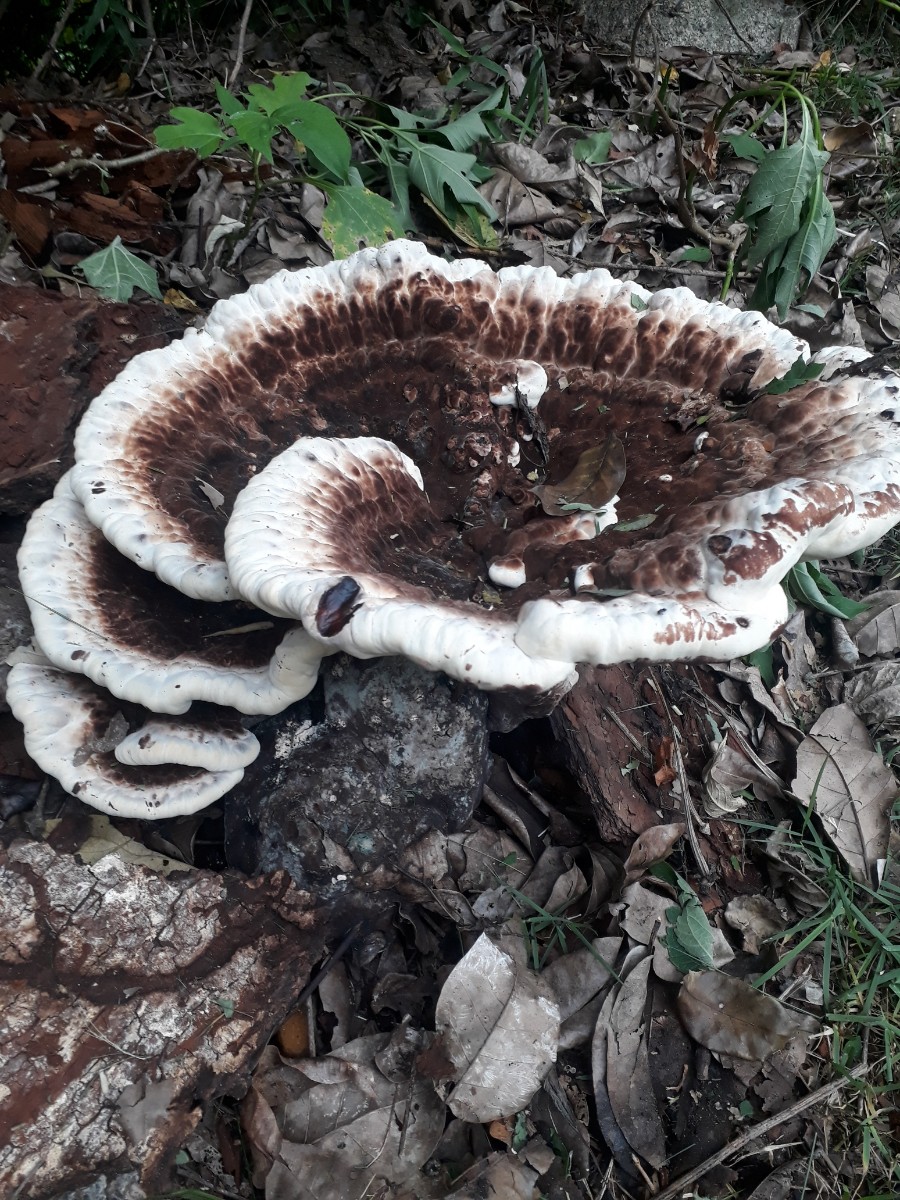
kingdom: Fungi
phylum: Basidiomycota
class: Agaricomycetes
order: Polyporales
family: Ganodermataceae
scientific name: Ganodermataceae
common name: lakporesvampfamilien
